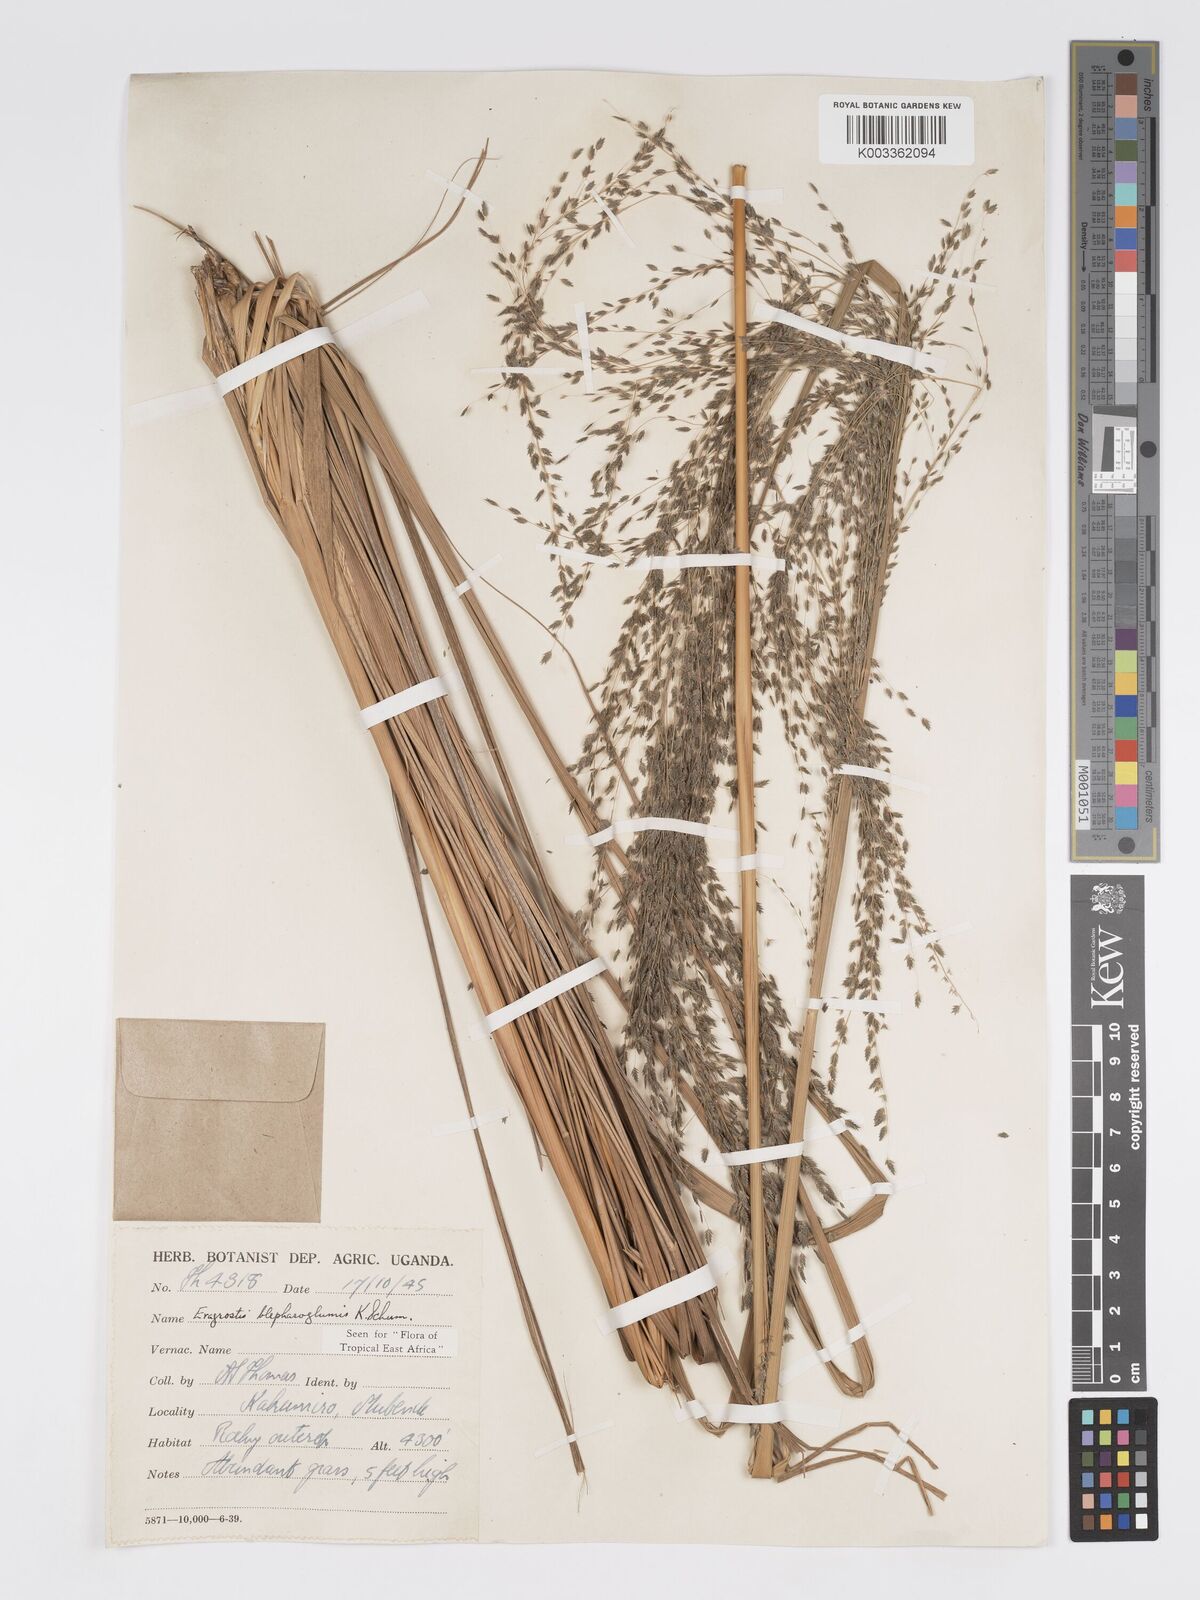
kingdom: Plantae
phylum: Tracheophyta
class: Liliopsida
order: Poales
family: Poaceae
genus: Eragrostis
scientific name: Eragrostis olivacea
